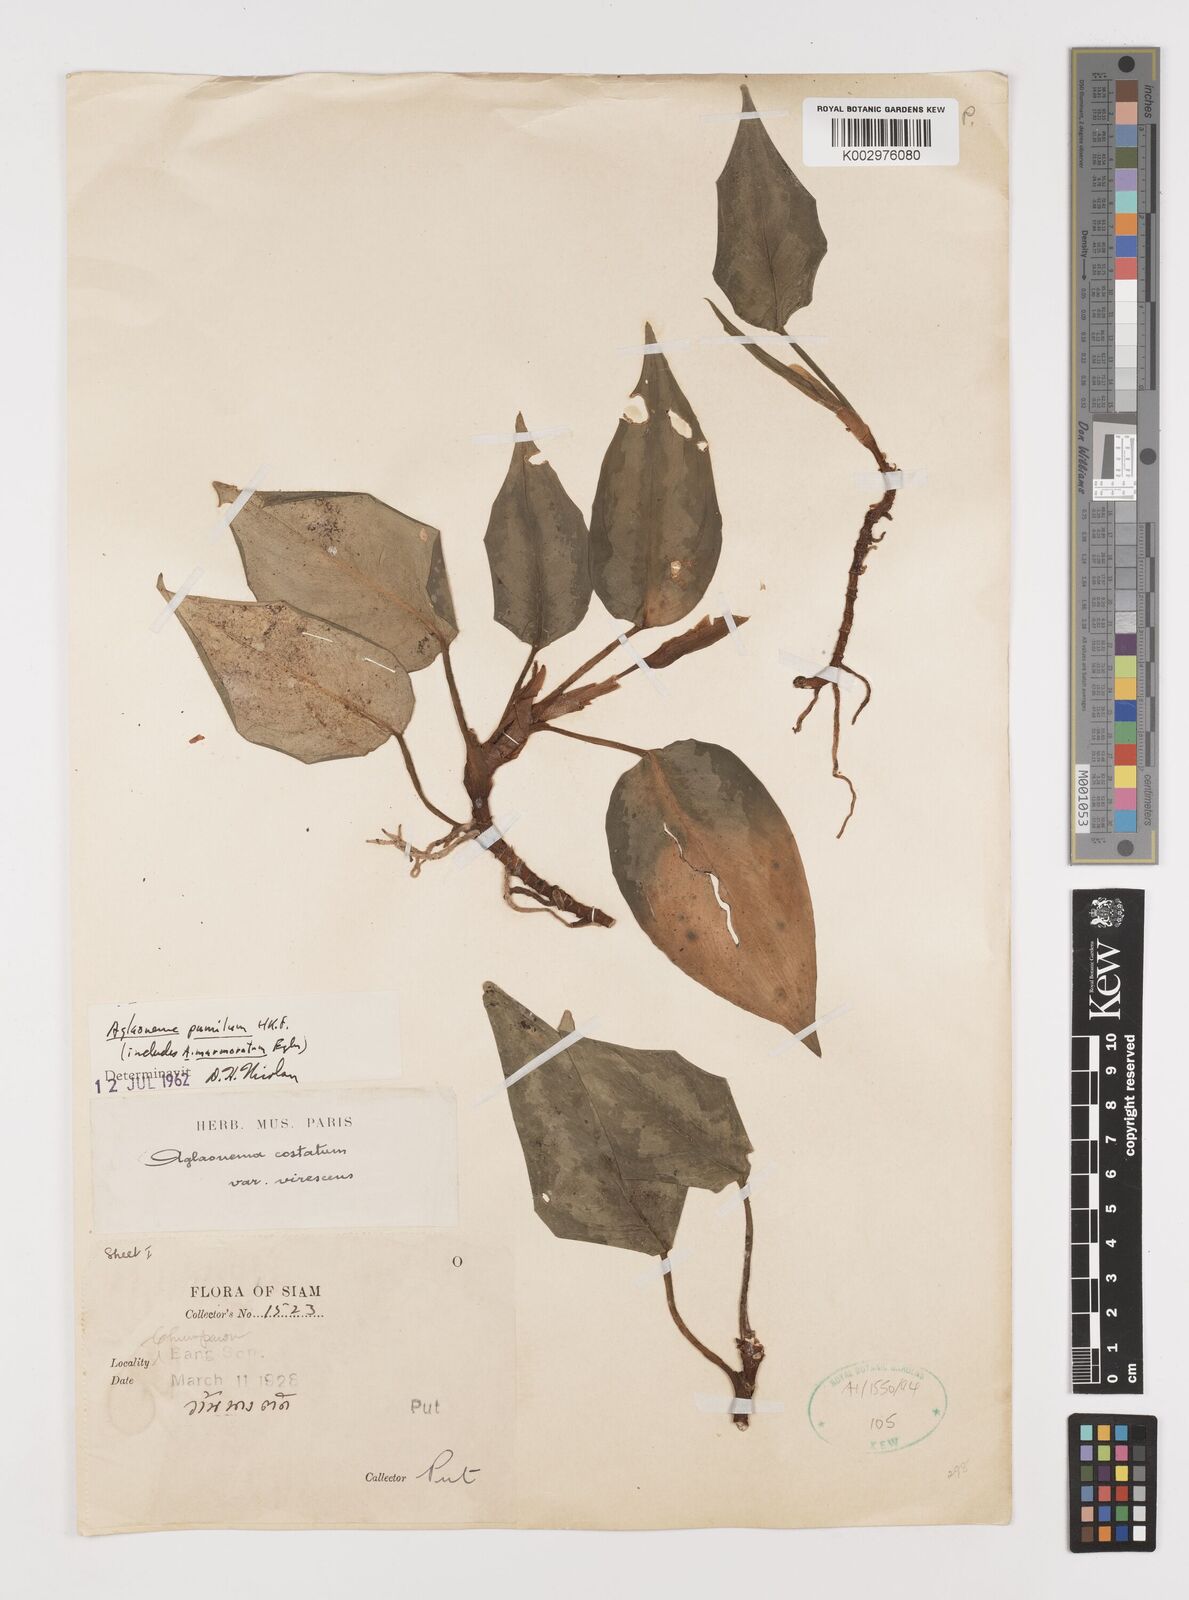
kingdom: Plantae
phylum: Tracheophyta
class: Liliopsida
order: Alismatales
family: Araceae
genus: Aglaonema
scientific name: Aglaonema pumilum
